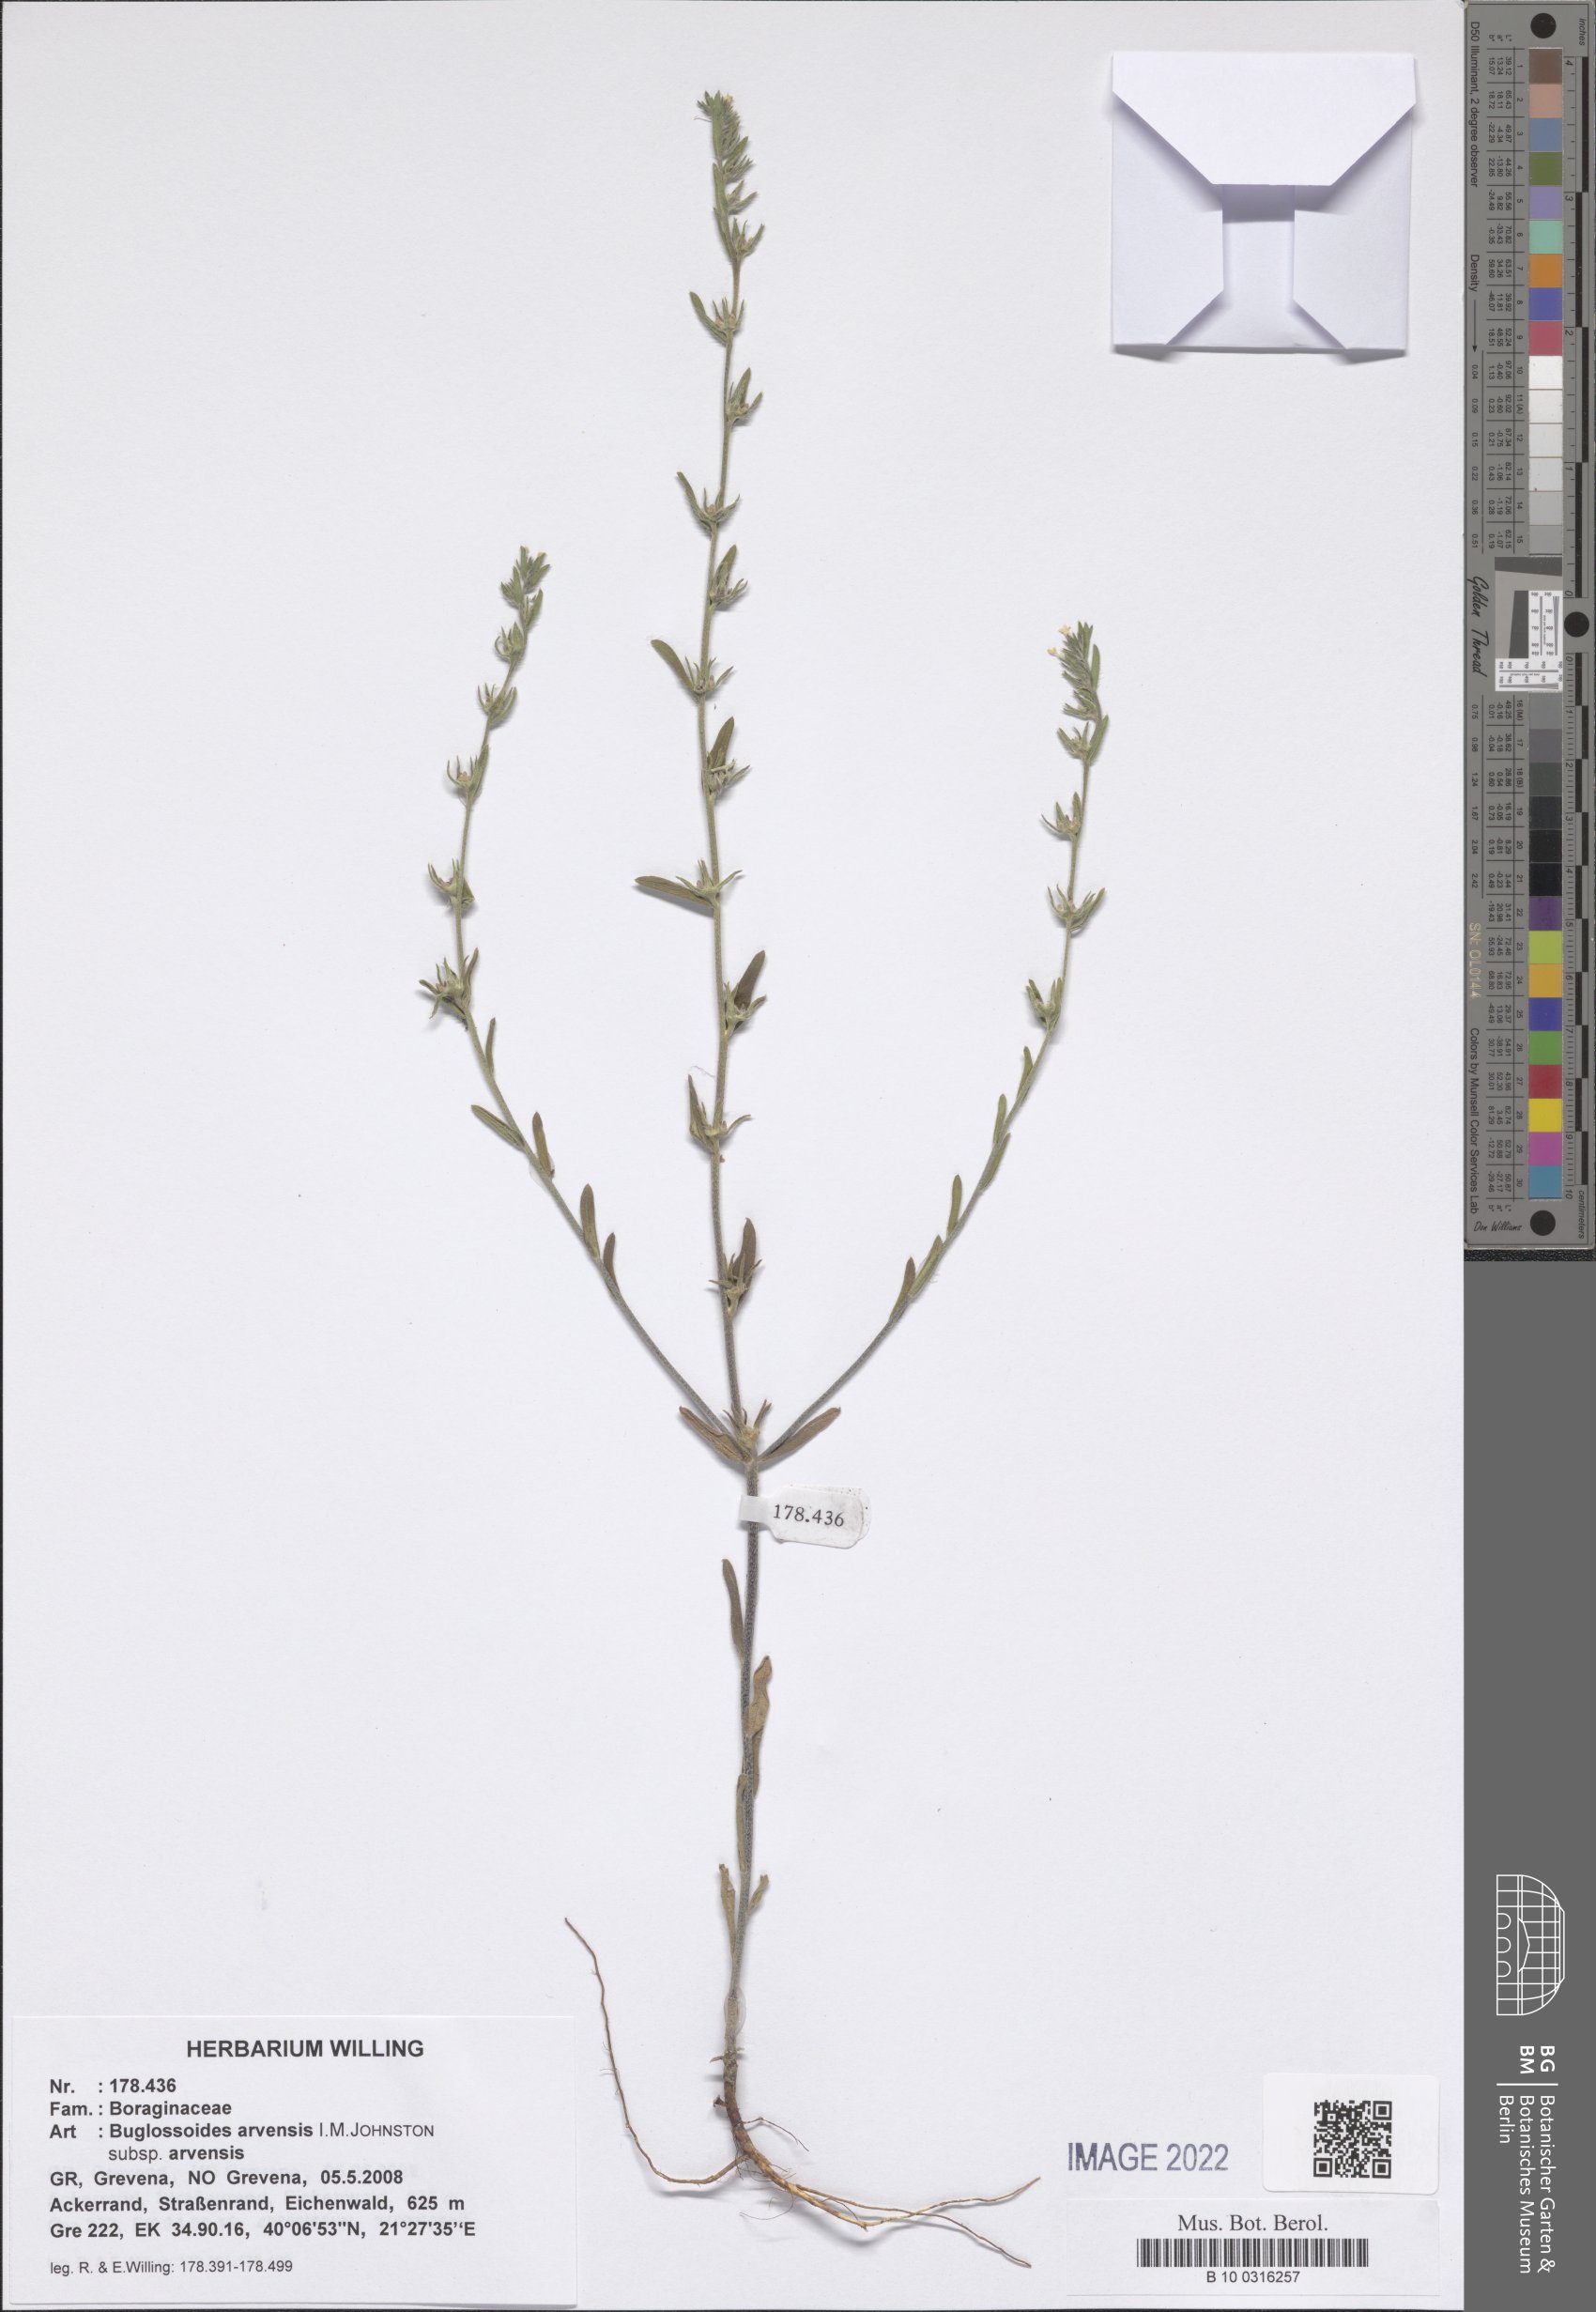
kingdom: Plantae
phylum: Tracheophyta
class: Magnoliopsida
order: Boraginales
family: Boraginaceae
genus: Buglossoides
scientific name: Buglossoides arvensis
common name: Corn gromwell
